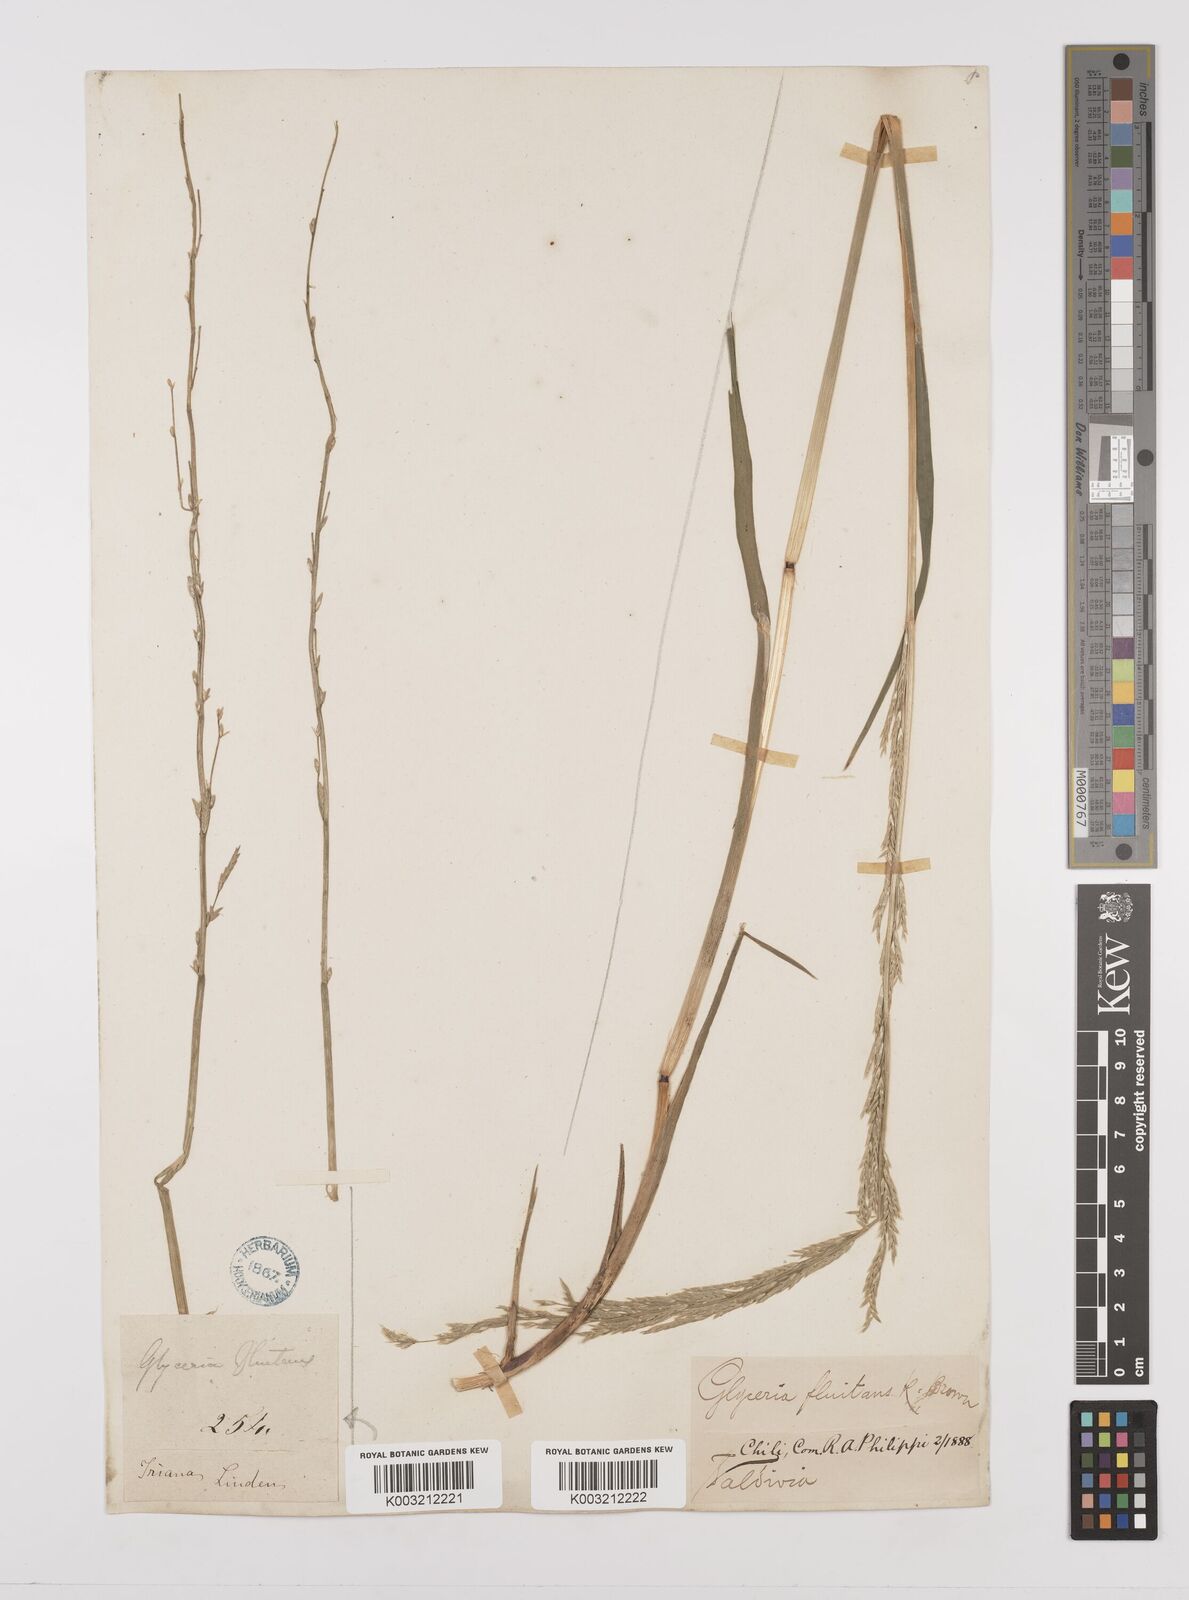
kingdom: Plantae
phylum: Tracheophyta
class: Liliopsida
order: Poales
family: Poaceae
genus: Glyceria
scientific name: Glyceria multiflora
